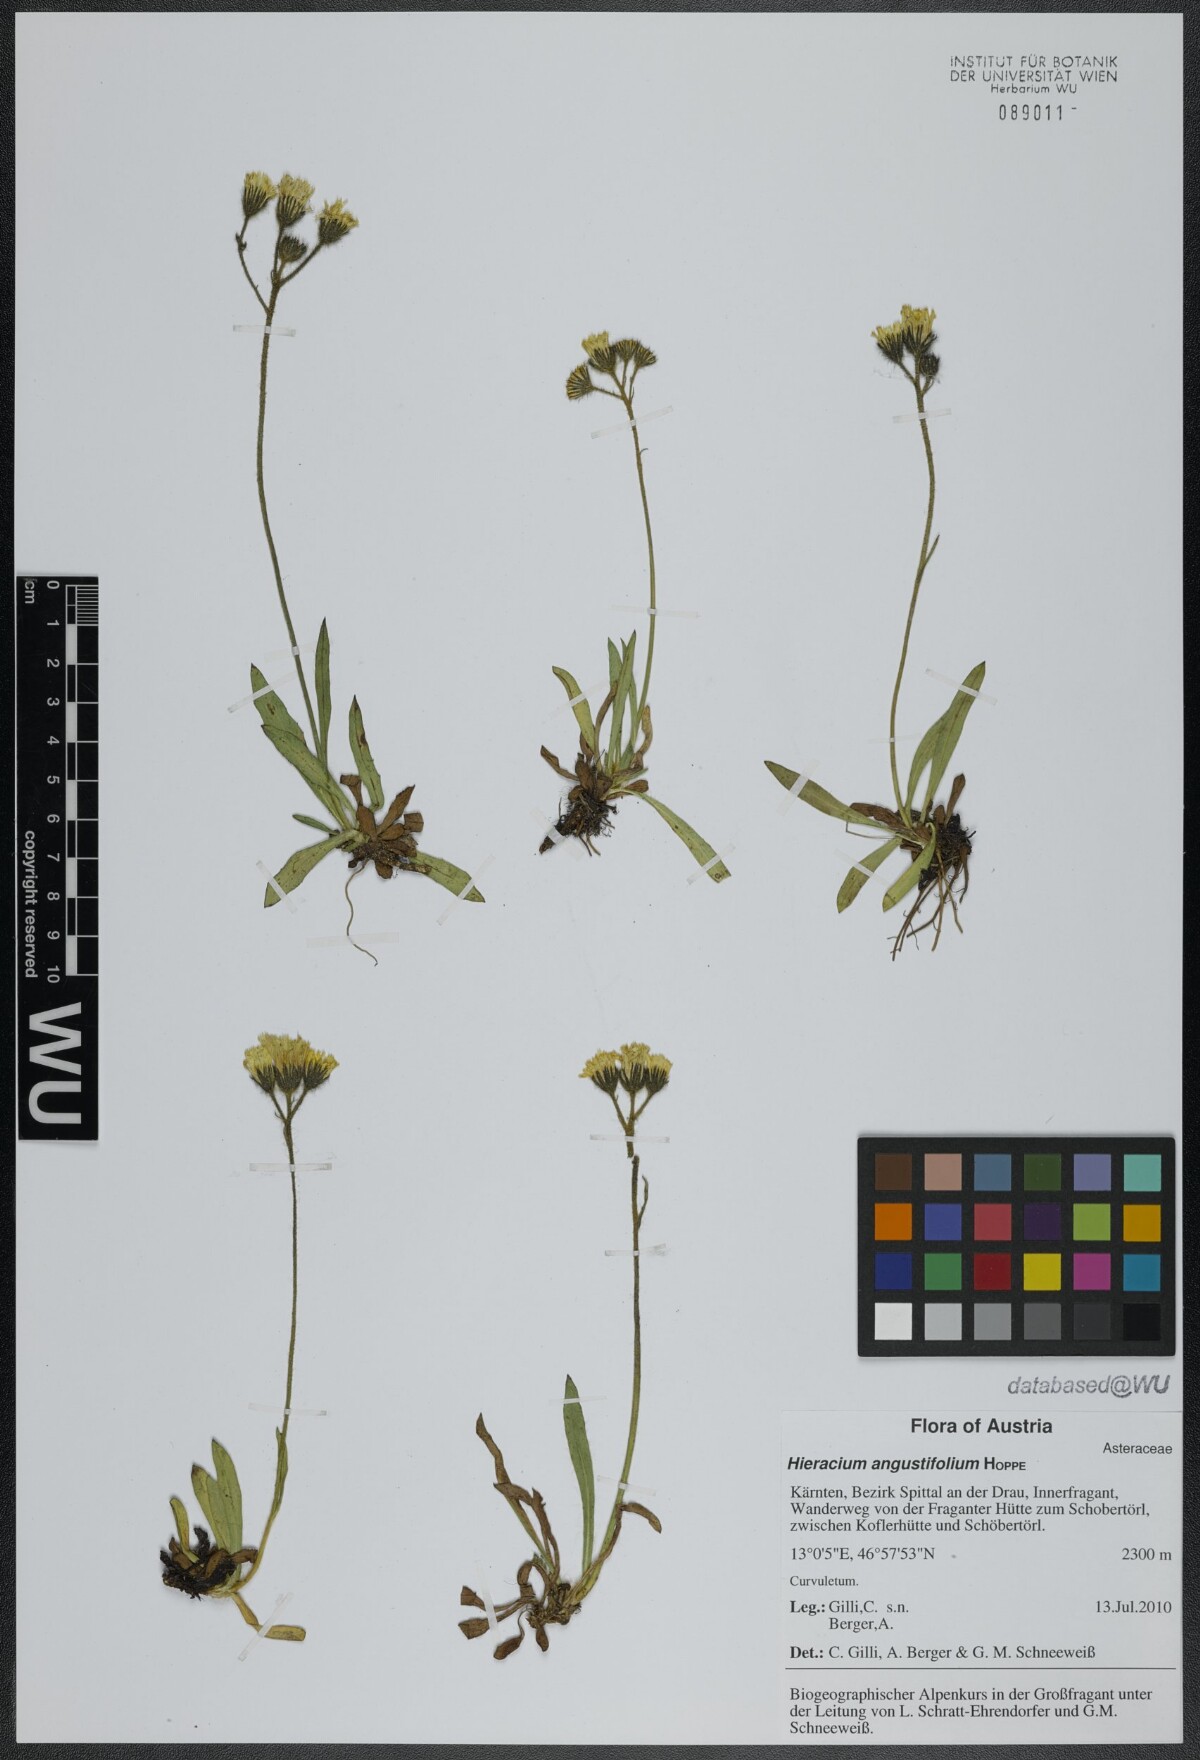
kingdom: Plantae
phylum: Tracheophyta
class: Magnoliopsida
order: Asterales
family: Asteraceae
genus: Pilosella
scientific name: Pilosella glacialis
